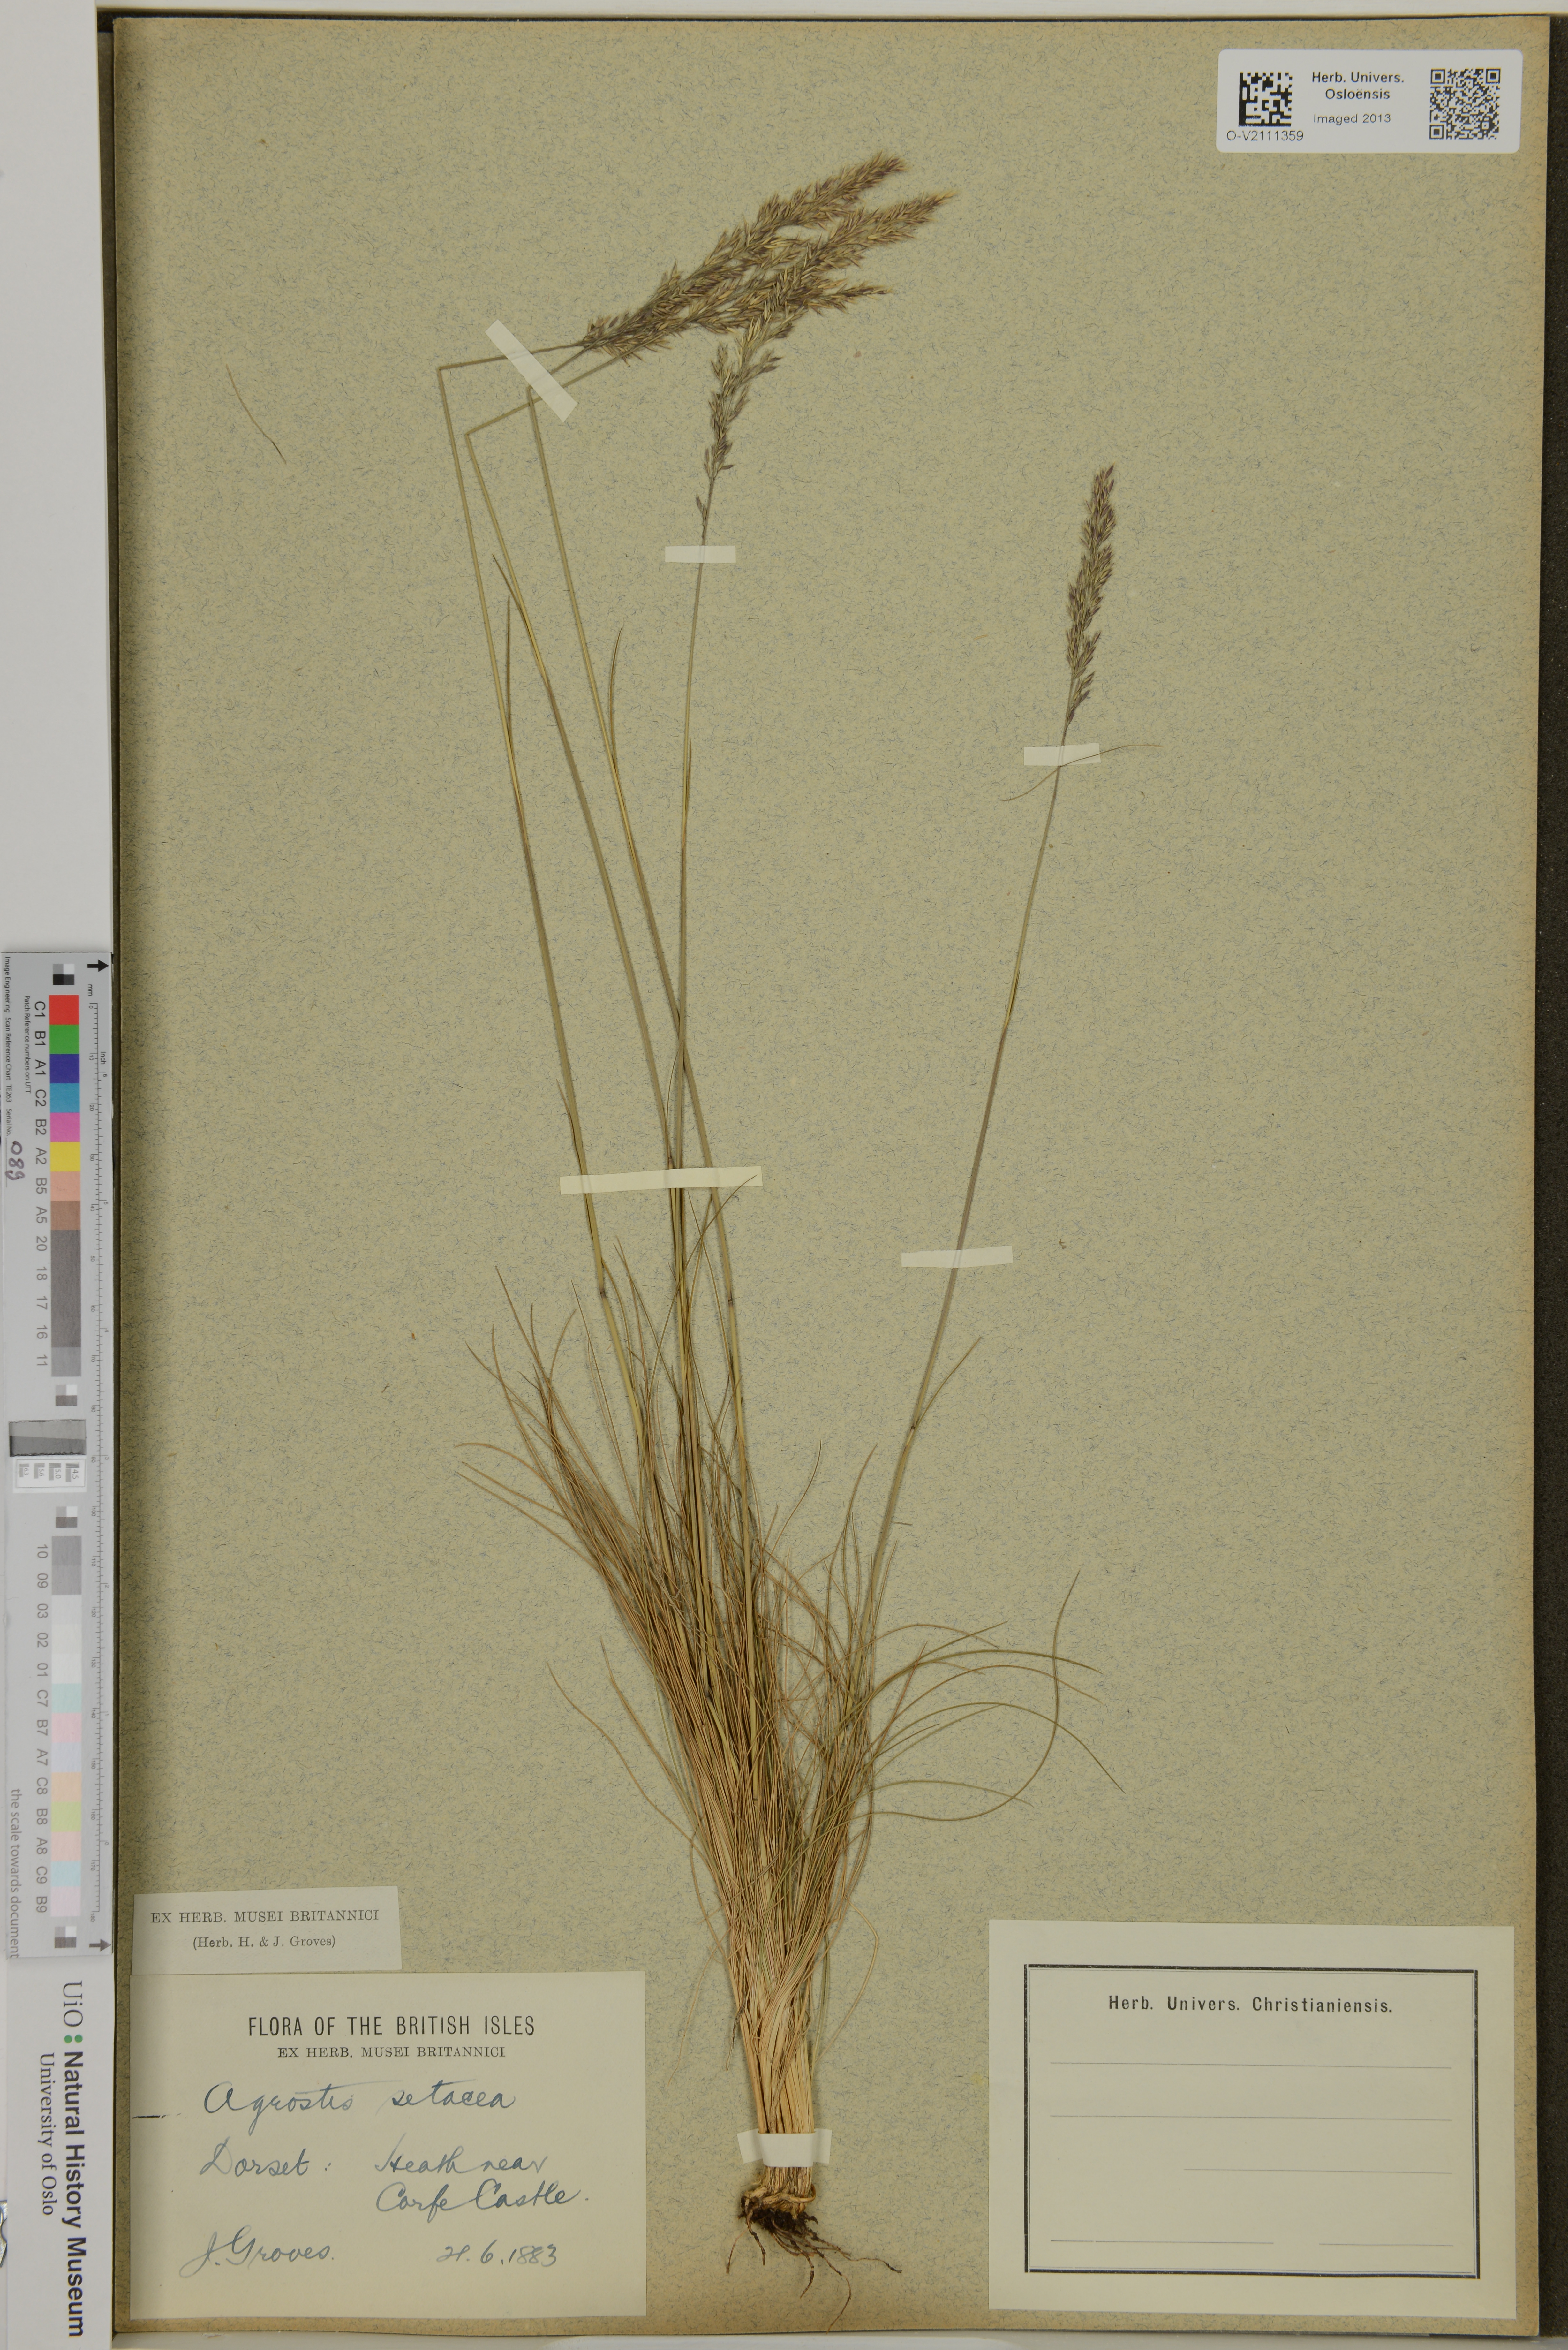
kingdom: Plantae
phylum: Tracheophyta
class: Liliopsida
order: Poales
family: Poaceae
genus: Agrostis
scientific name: Agrostis rupestris
